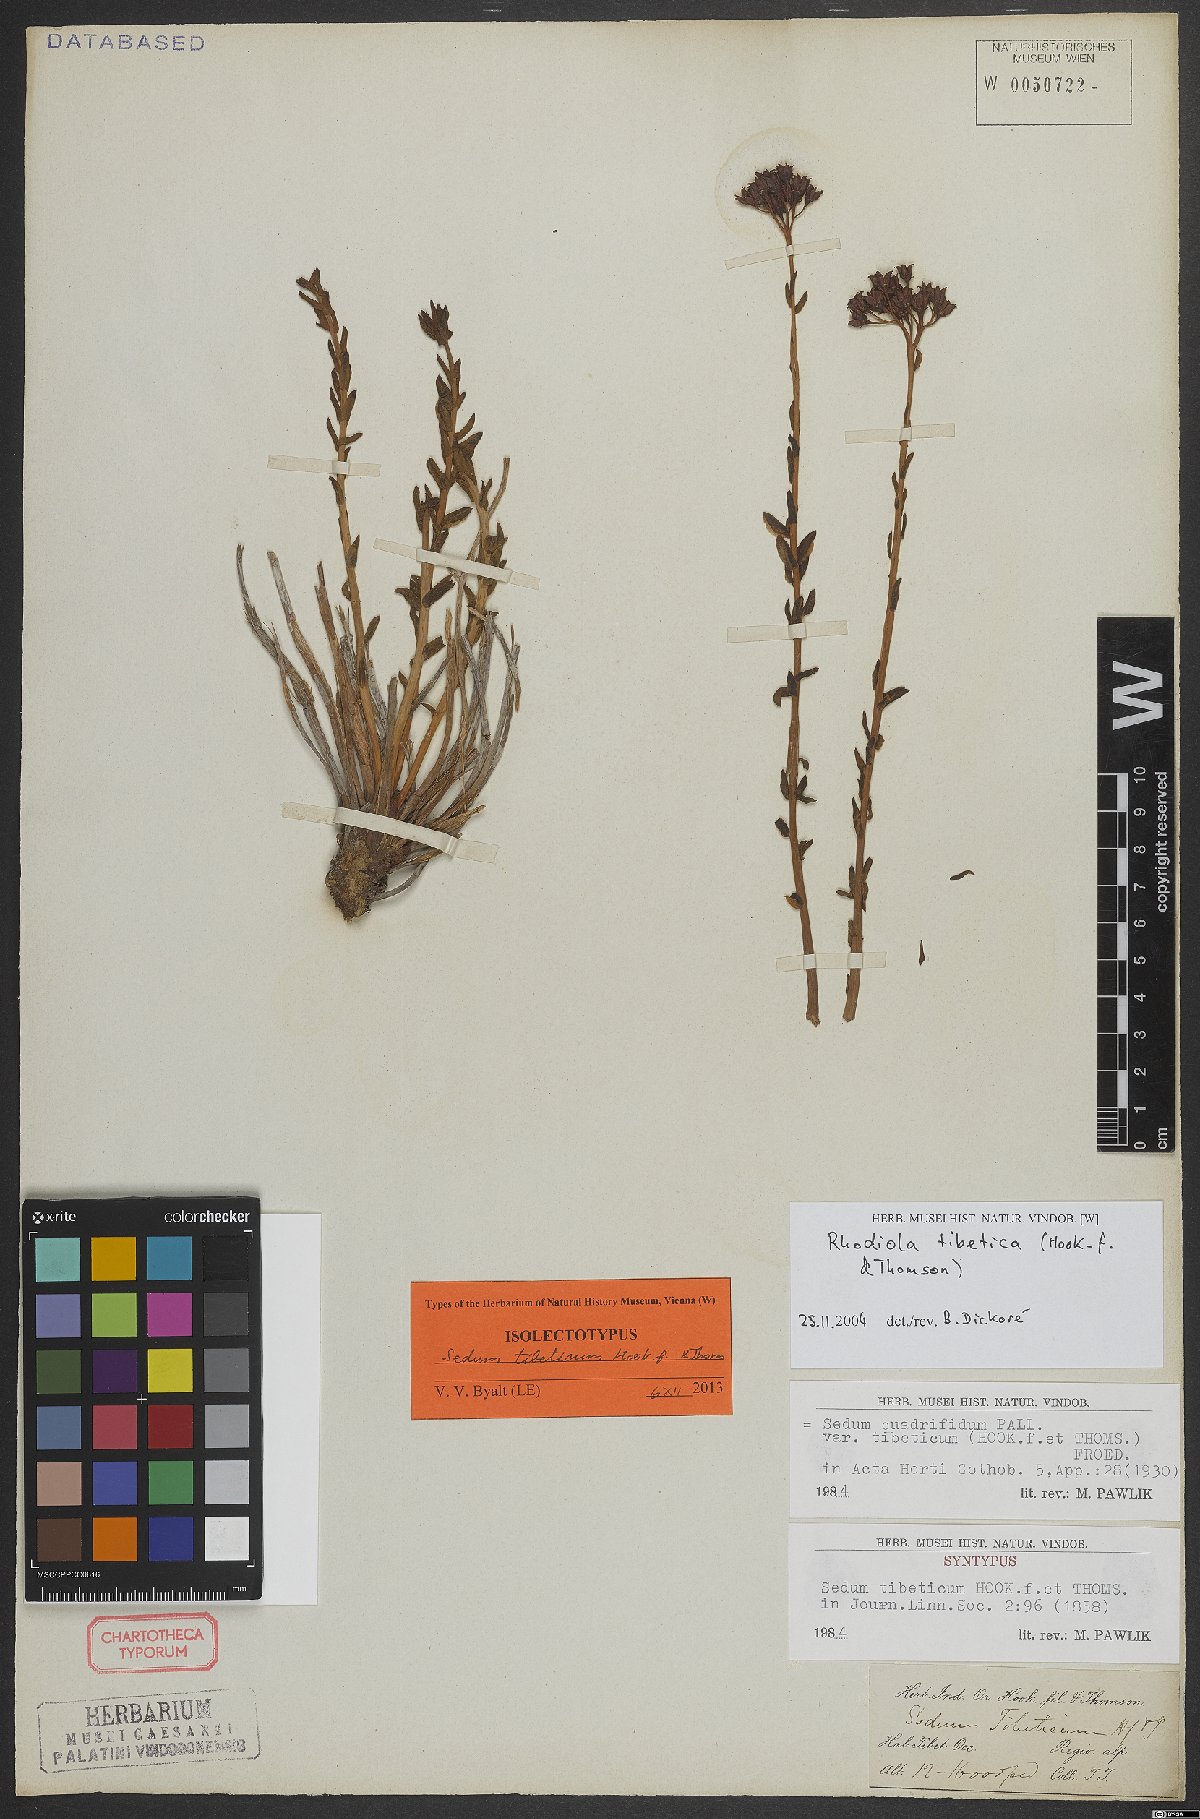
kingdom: Plantae
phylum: Tracheophyta
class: Magnoliopsida
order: Saxifragales
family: Crassulaceae
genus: Rhodiola
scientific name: Rhodiola tibetica
